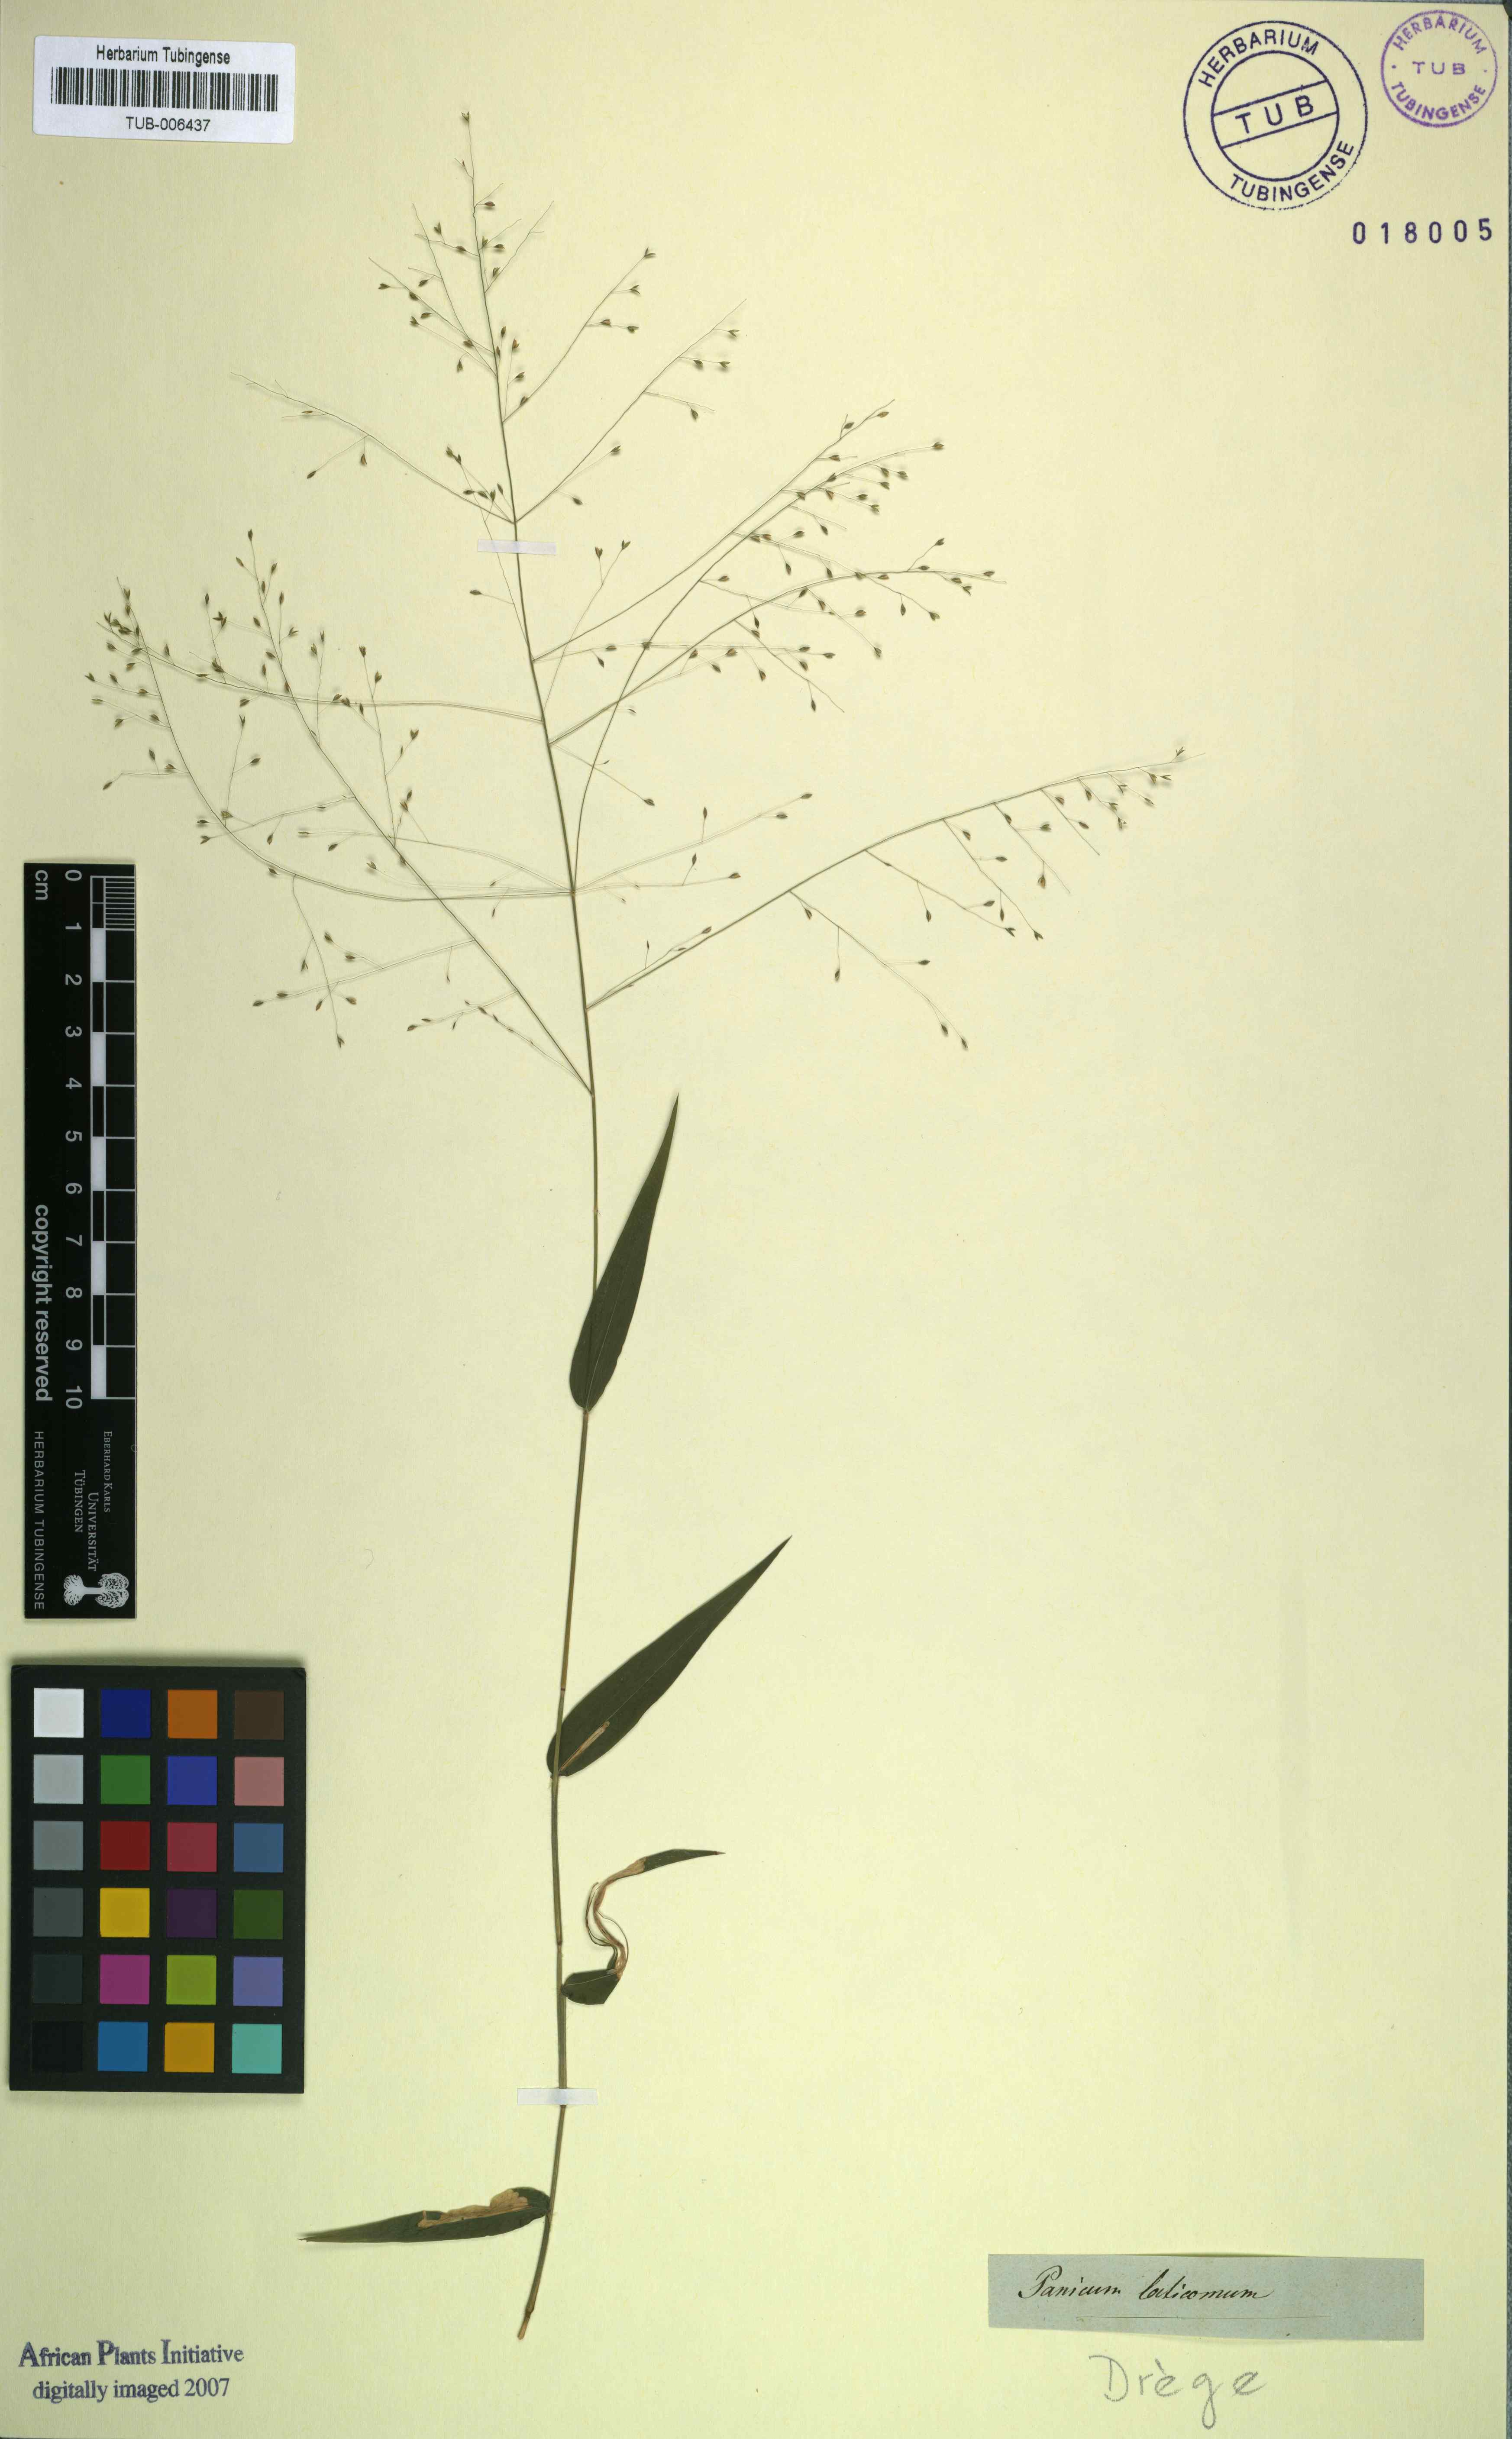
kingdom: Plantae
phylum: Tracheophyta
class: Liliopsida
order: Poales
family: Poaceae
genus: Panicum
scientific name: Panicum laticomum
